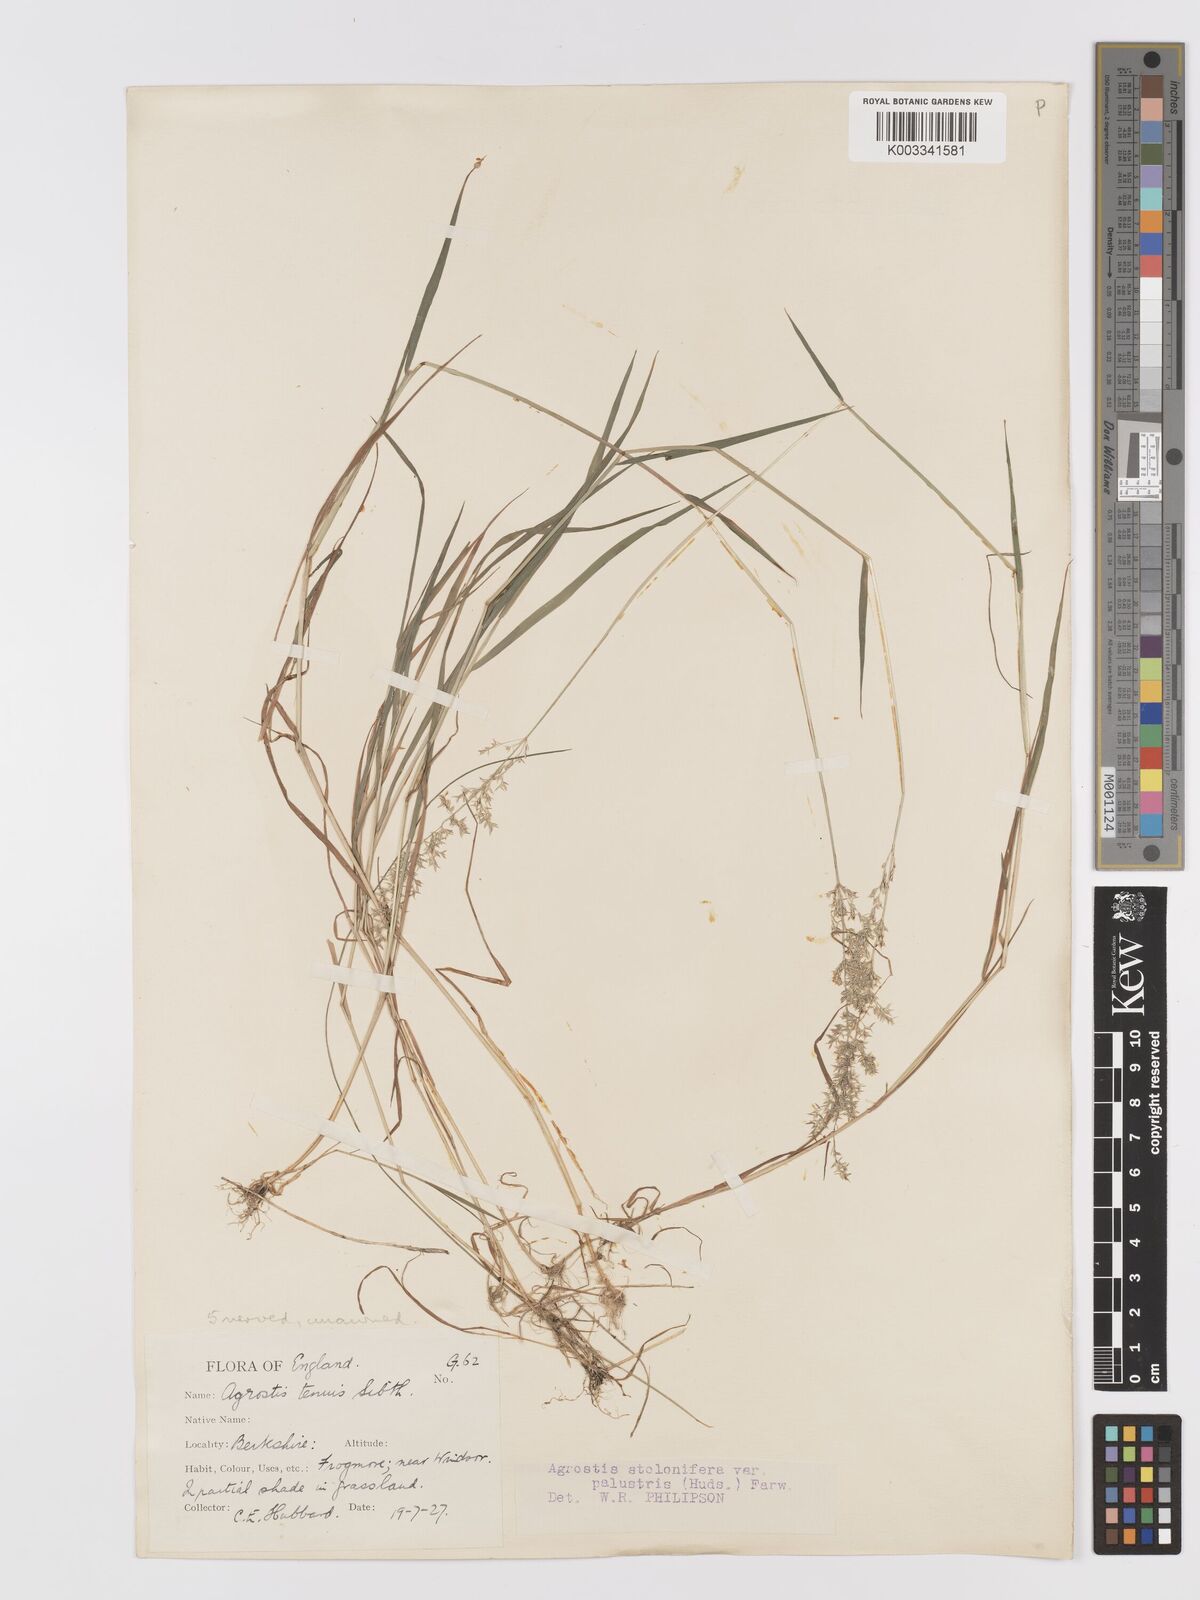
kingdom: Plantae
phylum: Tracheophyta
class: Liliopsida
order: Poales
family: Poaceae
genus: Agrostis
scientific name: Agrostis stolonifera
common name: Creeping bentgrass
